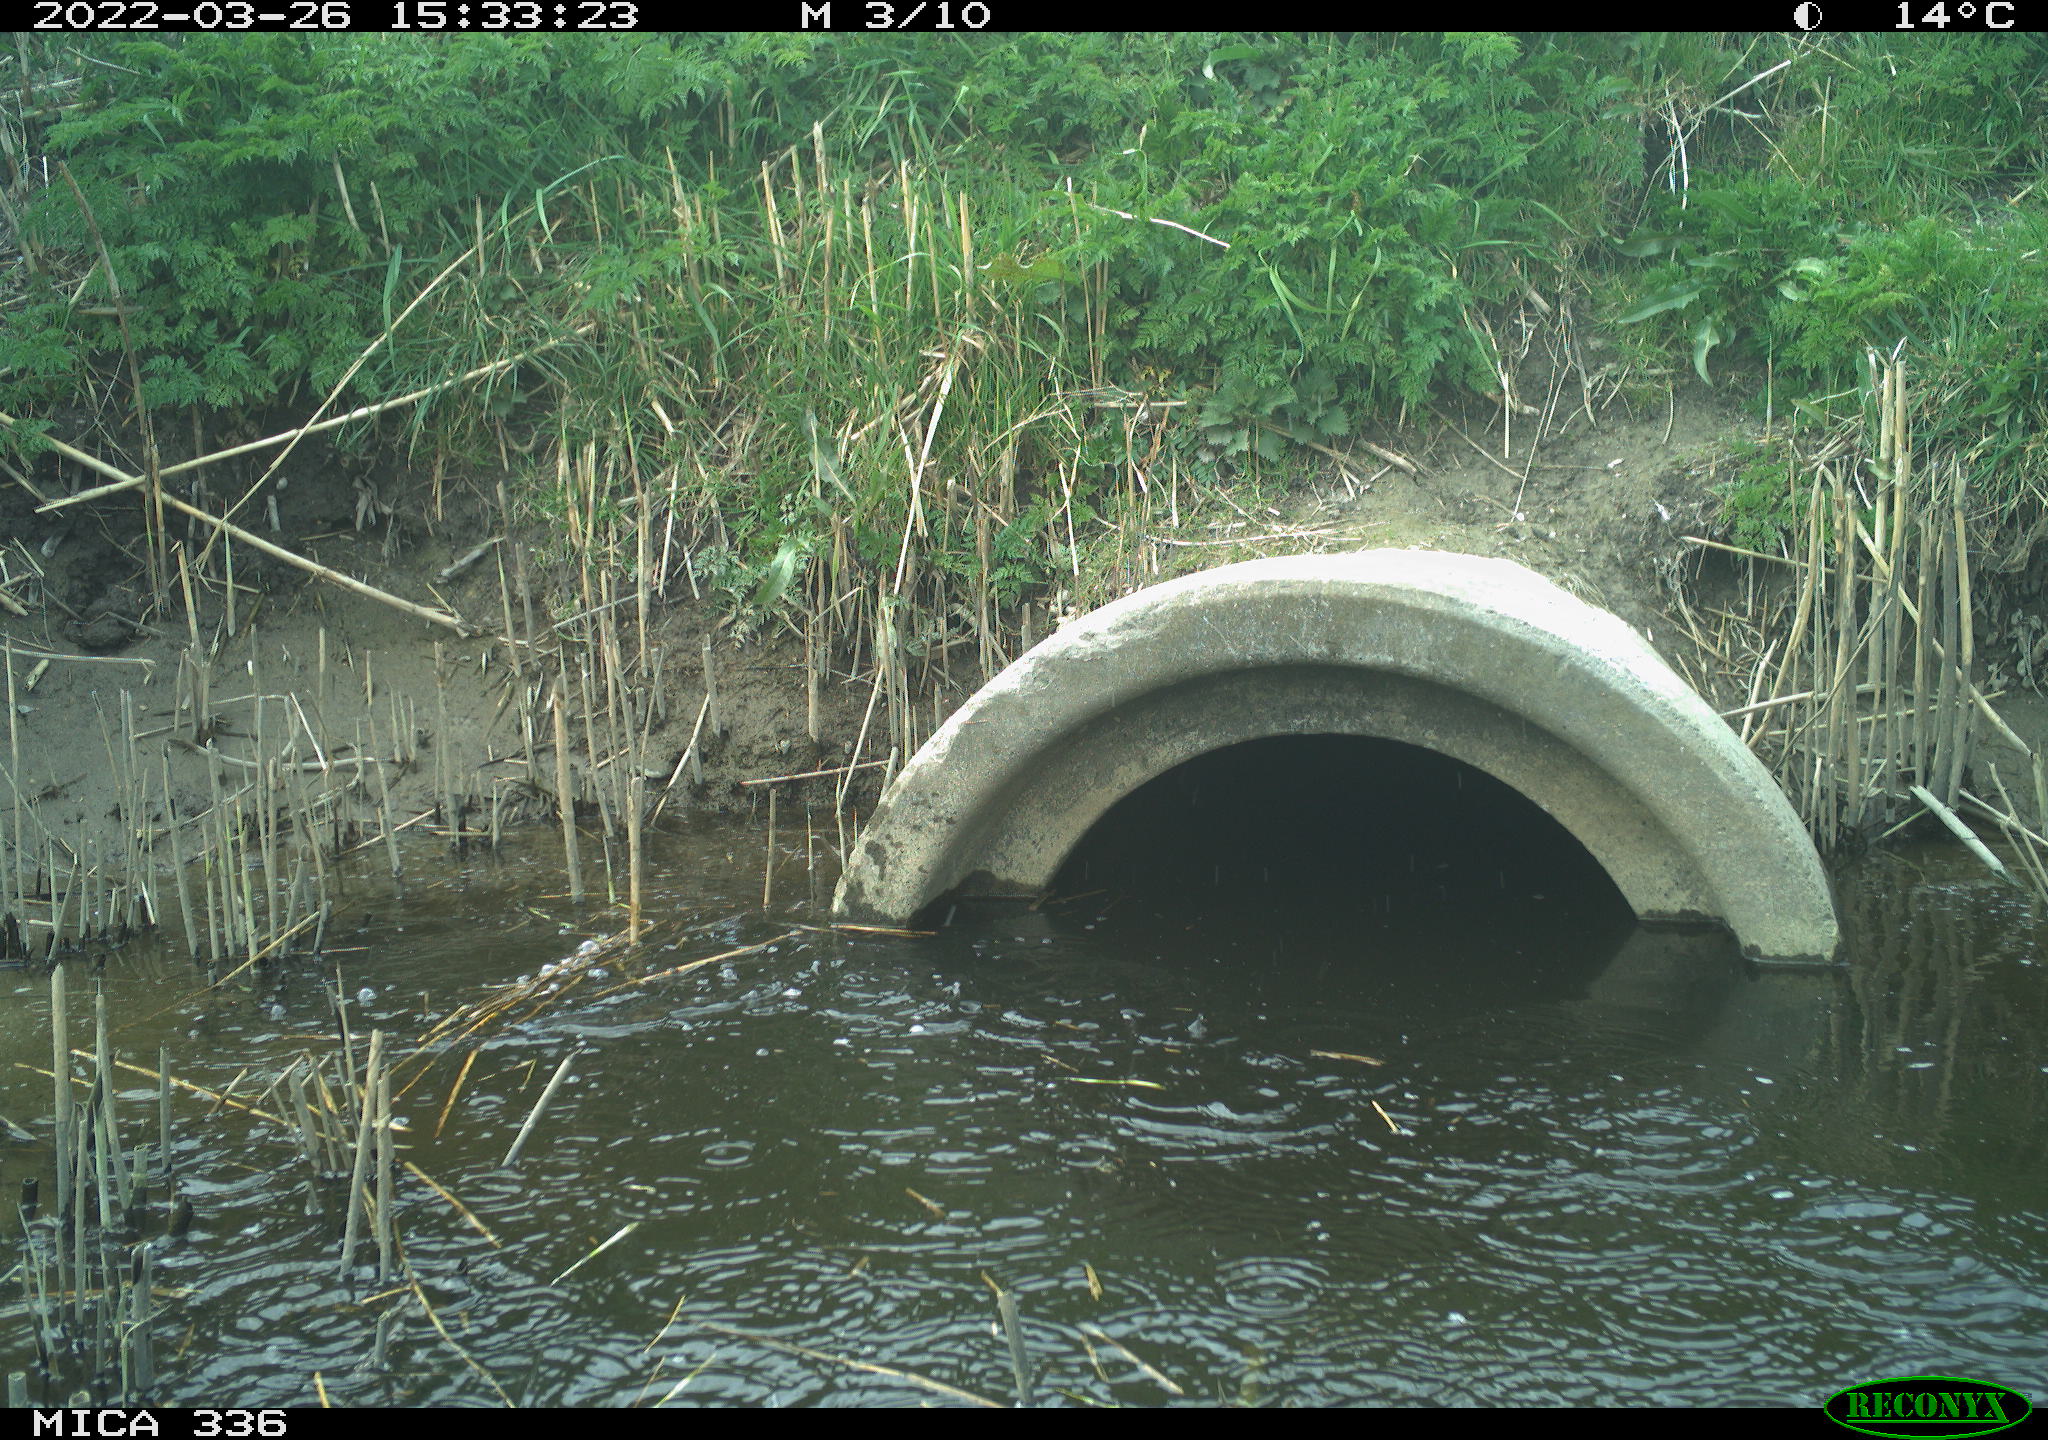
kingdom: Animalia
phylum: Chordata
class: Aves
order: Pelecaniformes
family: Ardeidae
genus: Ardea
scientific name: Ardea cinerea
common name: Grey heron
